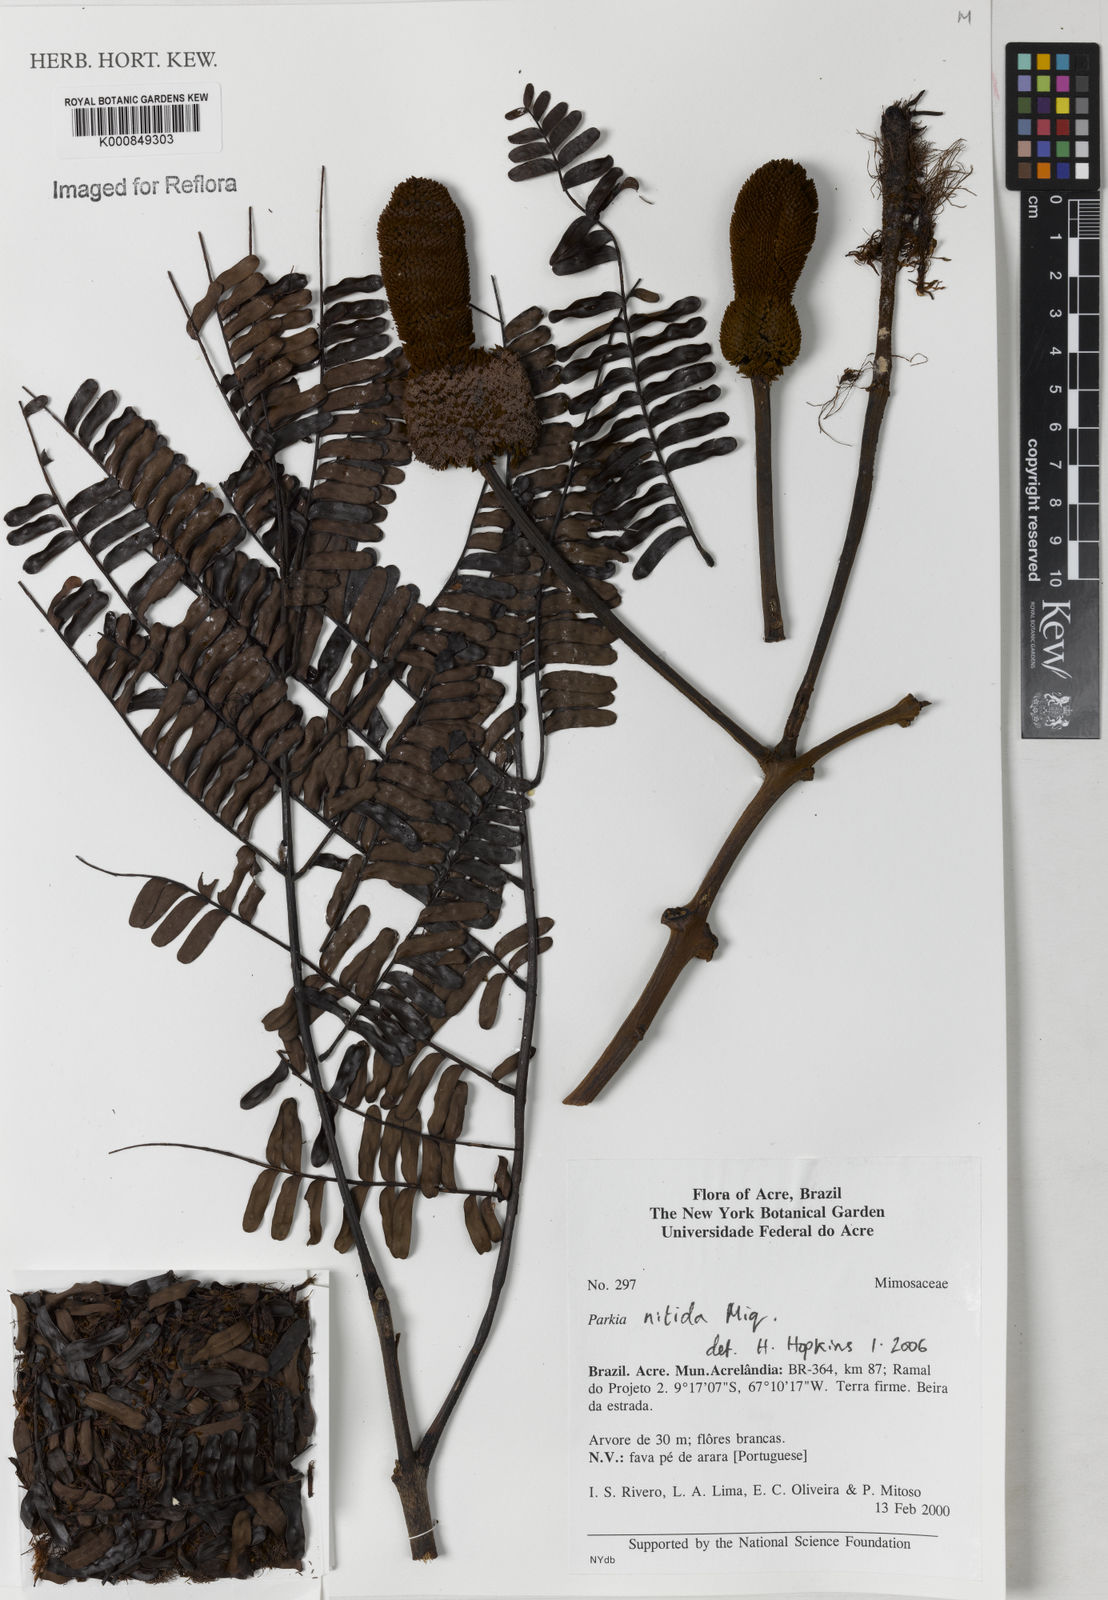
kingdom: Plantae
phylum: Tracheophyta
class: Magnoliopsida
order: Fabales
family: Fabaceae
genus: Parkia
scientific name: Parkia nitida
